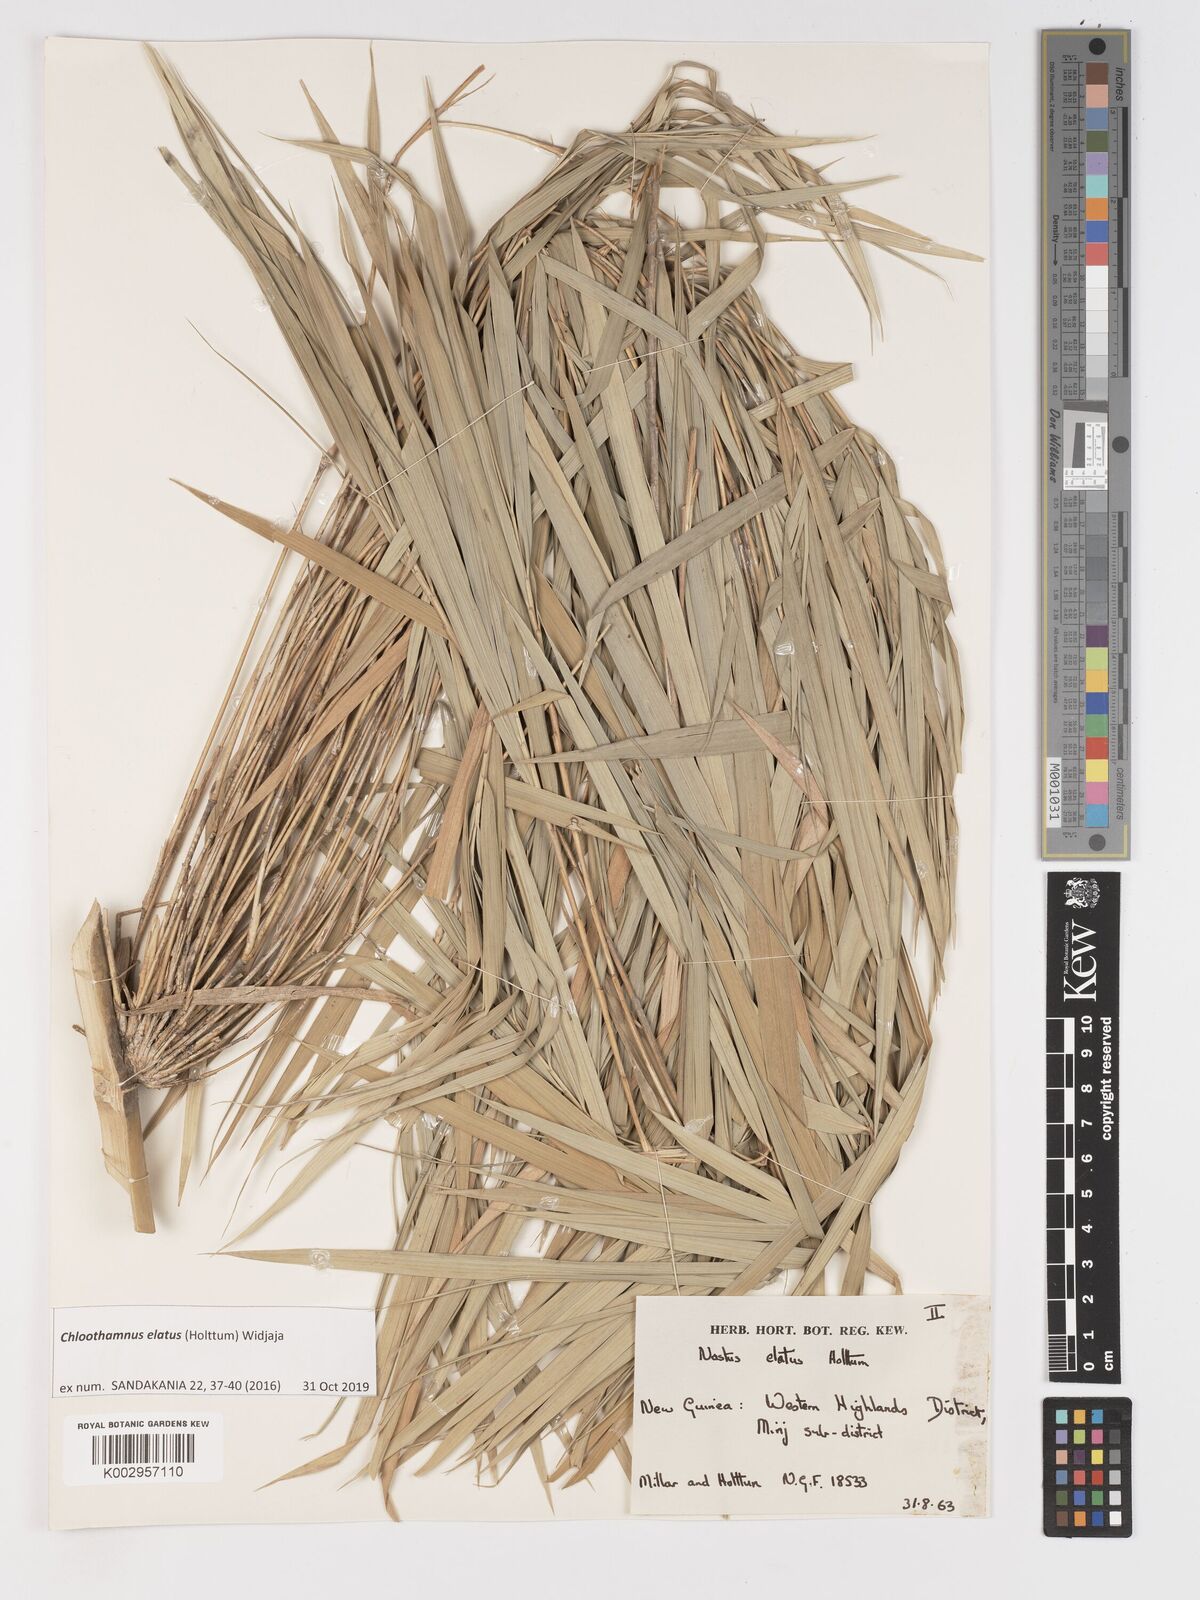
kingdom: Plantae
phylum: Tracheophyta
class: Liliopsida
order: Poales
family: Poaceae
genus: Chloothamnus
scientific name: Chloothamnus elatus
